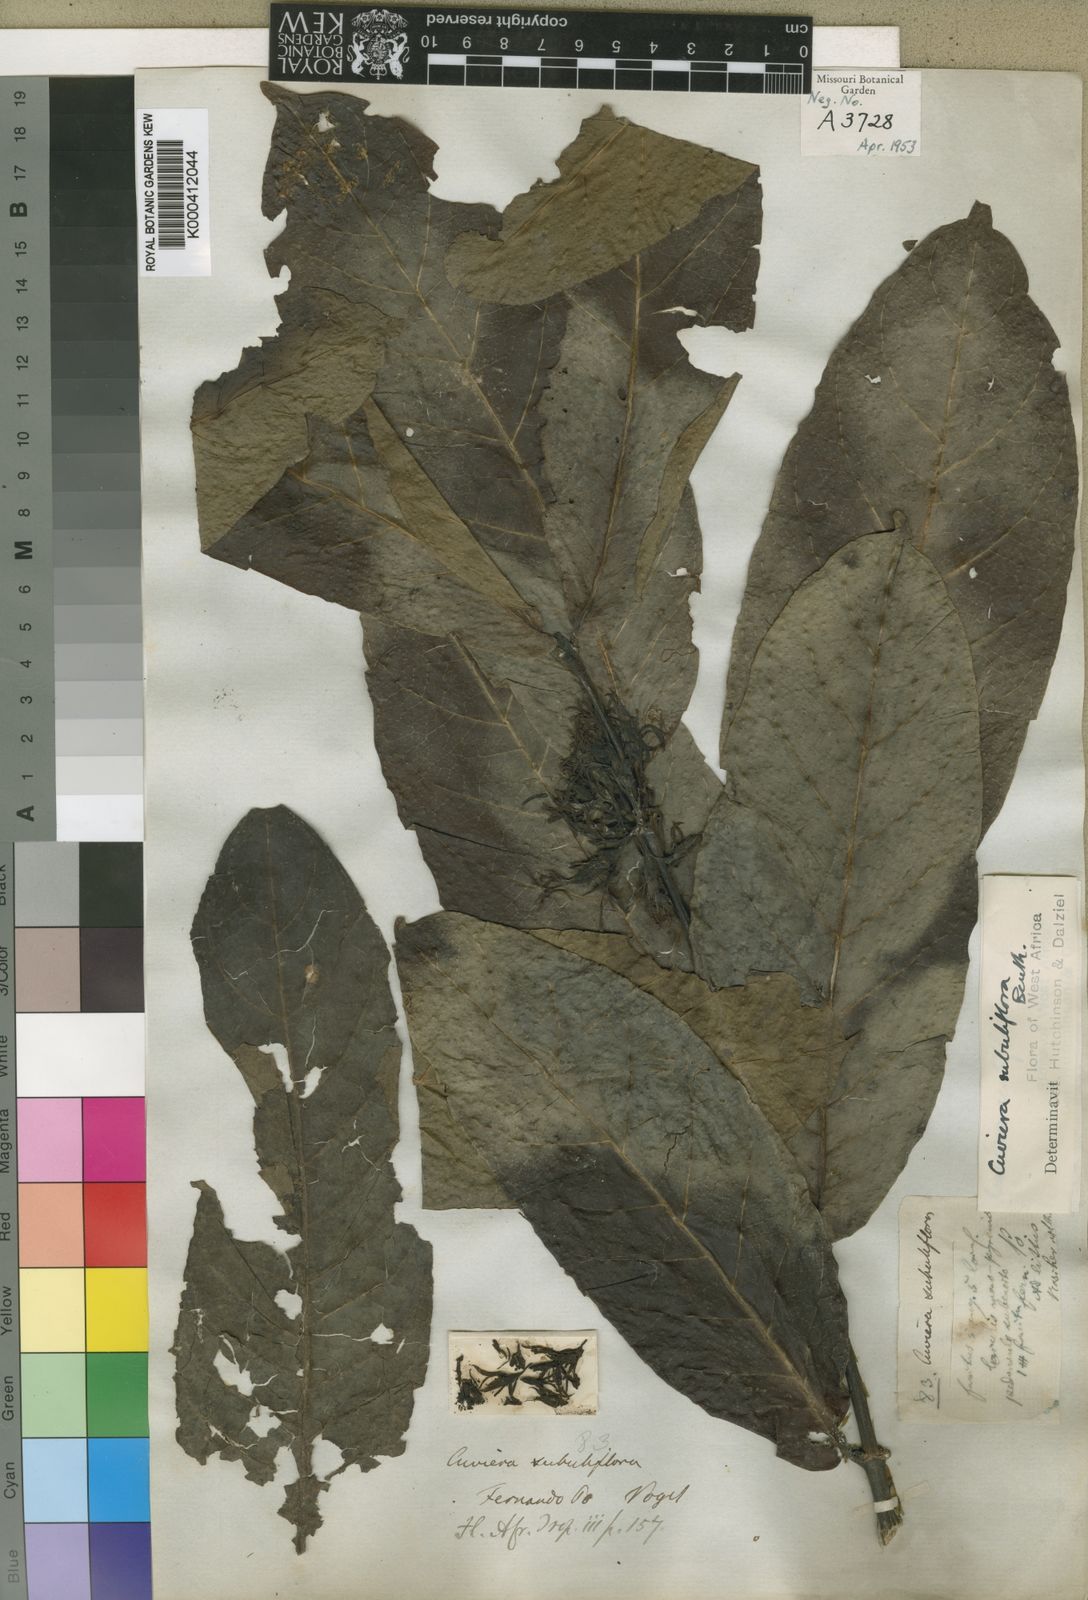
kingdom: Plantae
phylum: Tracheophyta
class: Magnoliopsida
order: Gentianales
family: Rubiaceae
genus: Cuviera
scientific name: Cuviera acutiflora
